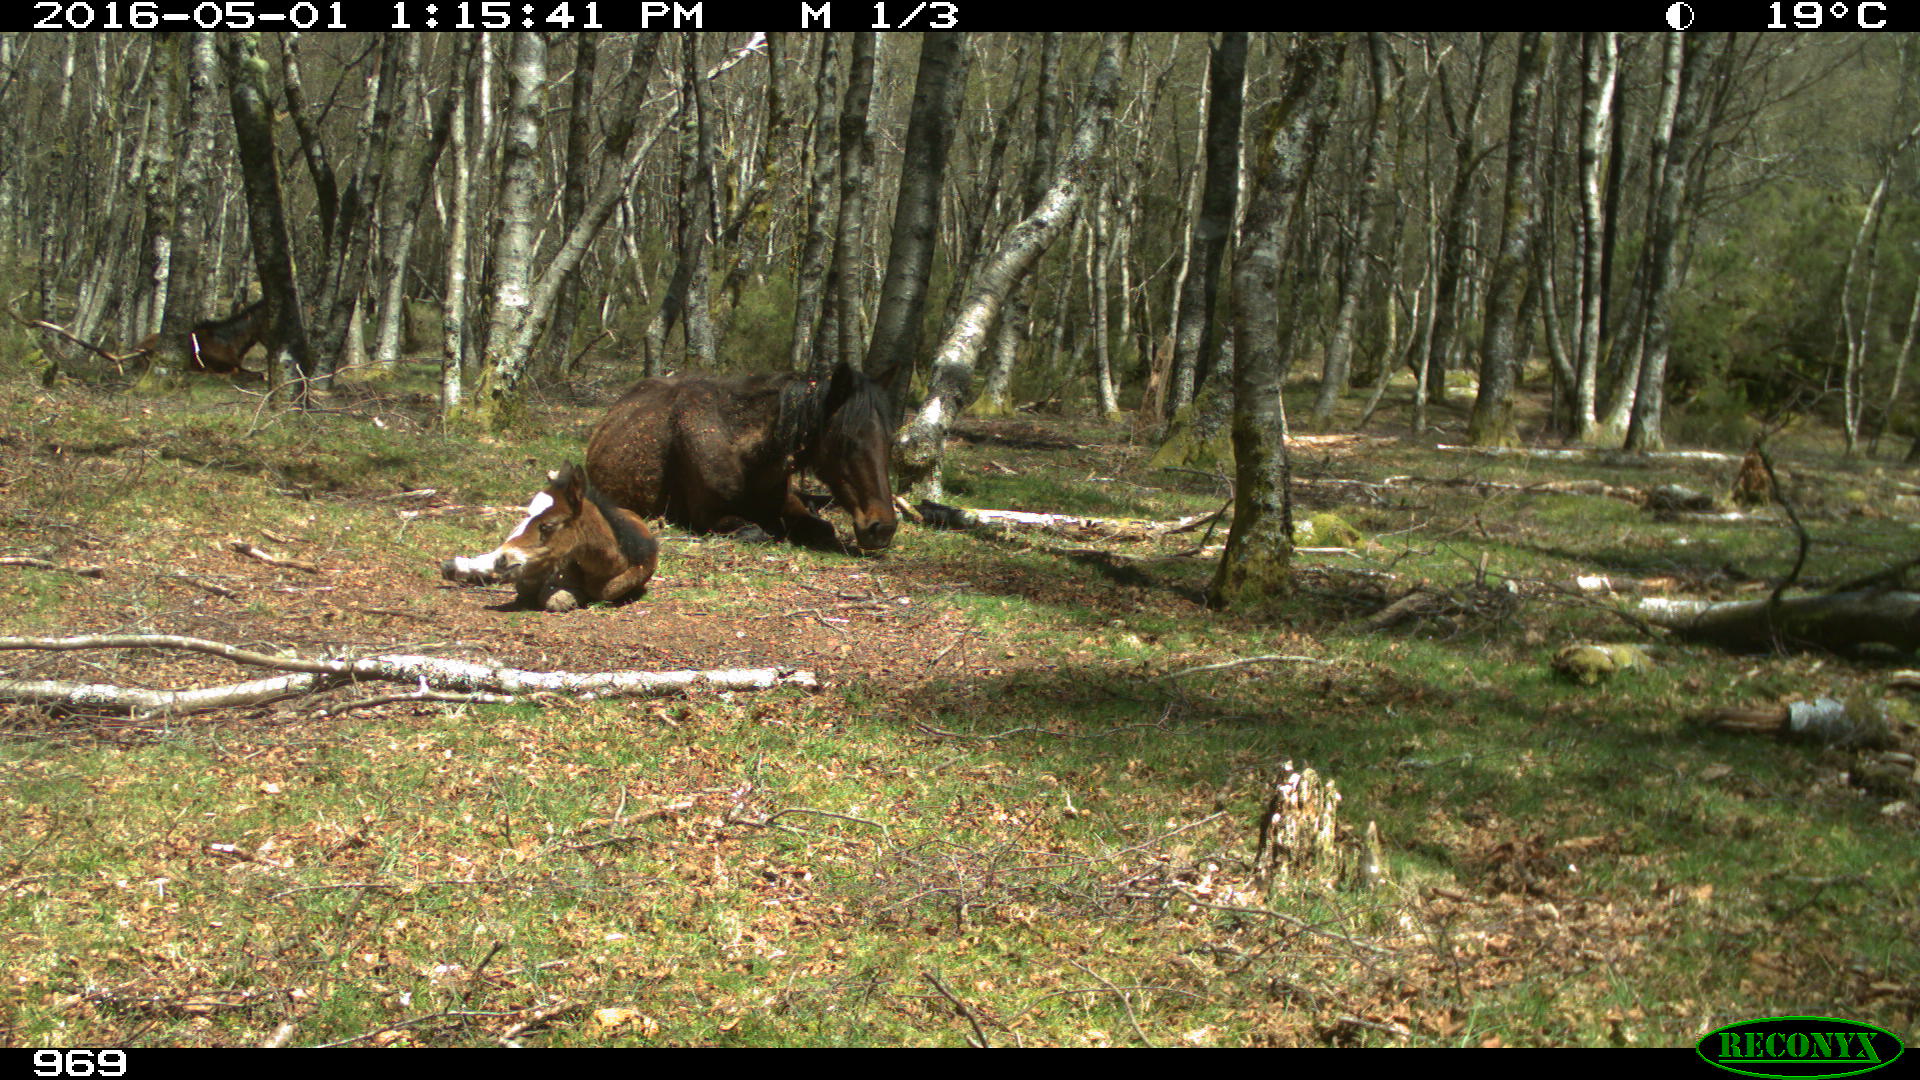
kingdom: Animalia
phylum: Chordata
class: Mammalia
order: Perissodactyla
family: Equidae
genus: Equus
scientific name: Equus caballus
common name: Horse
